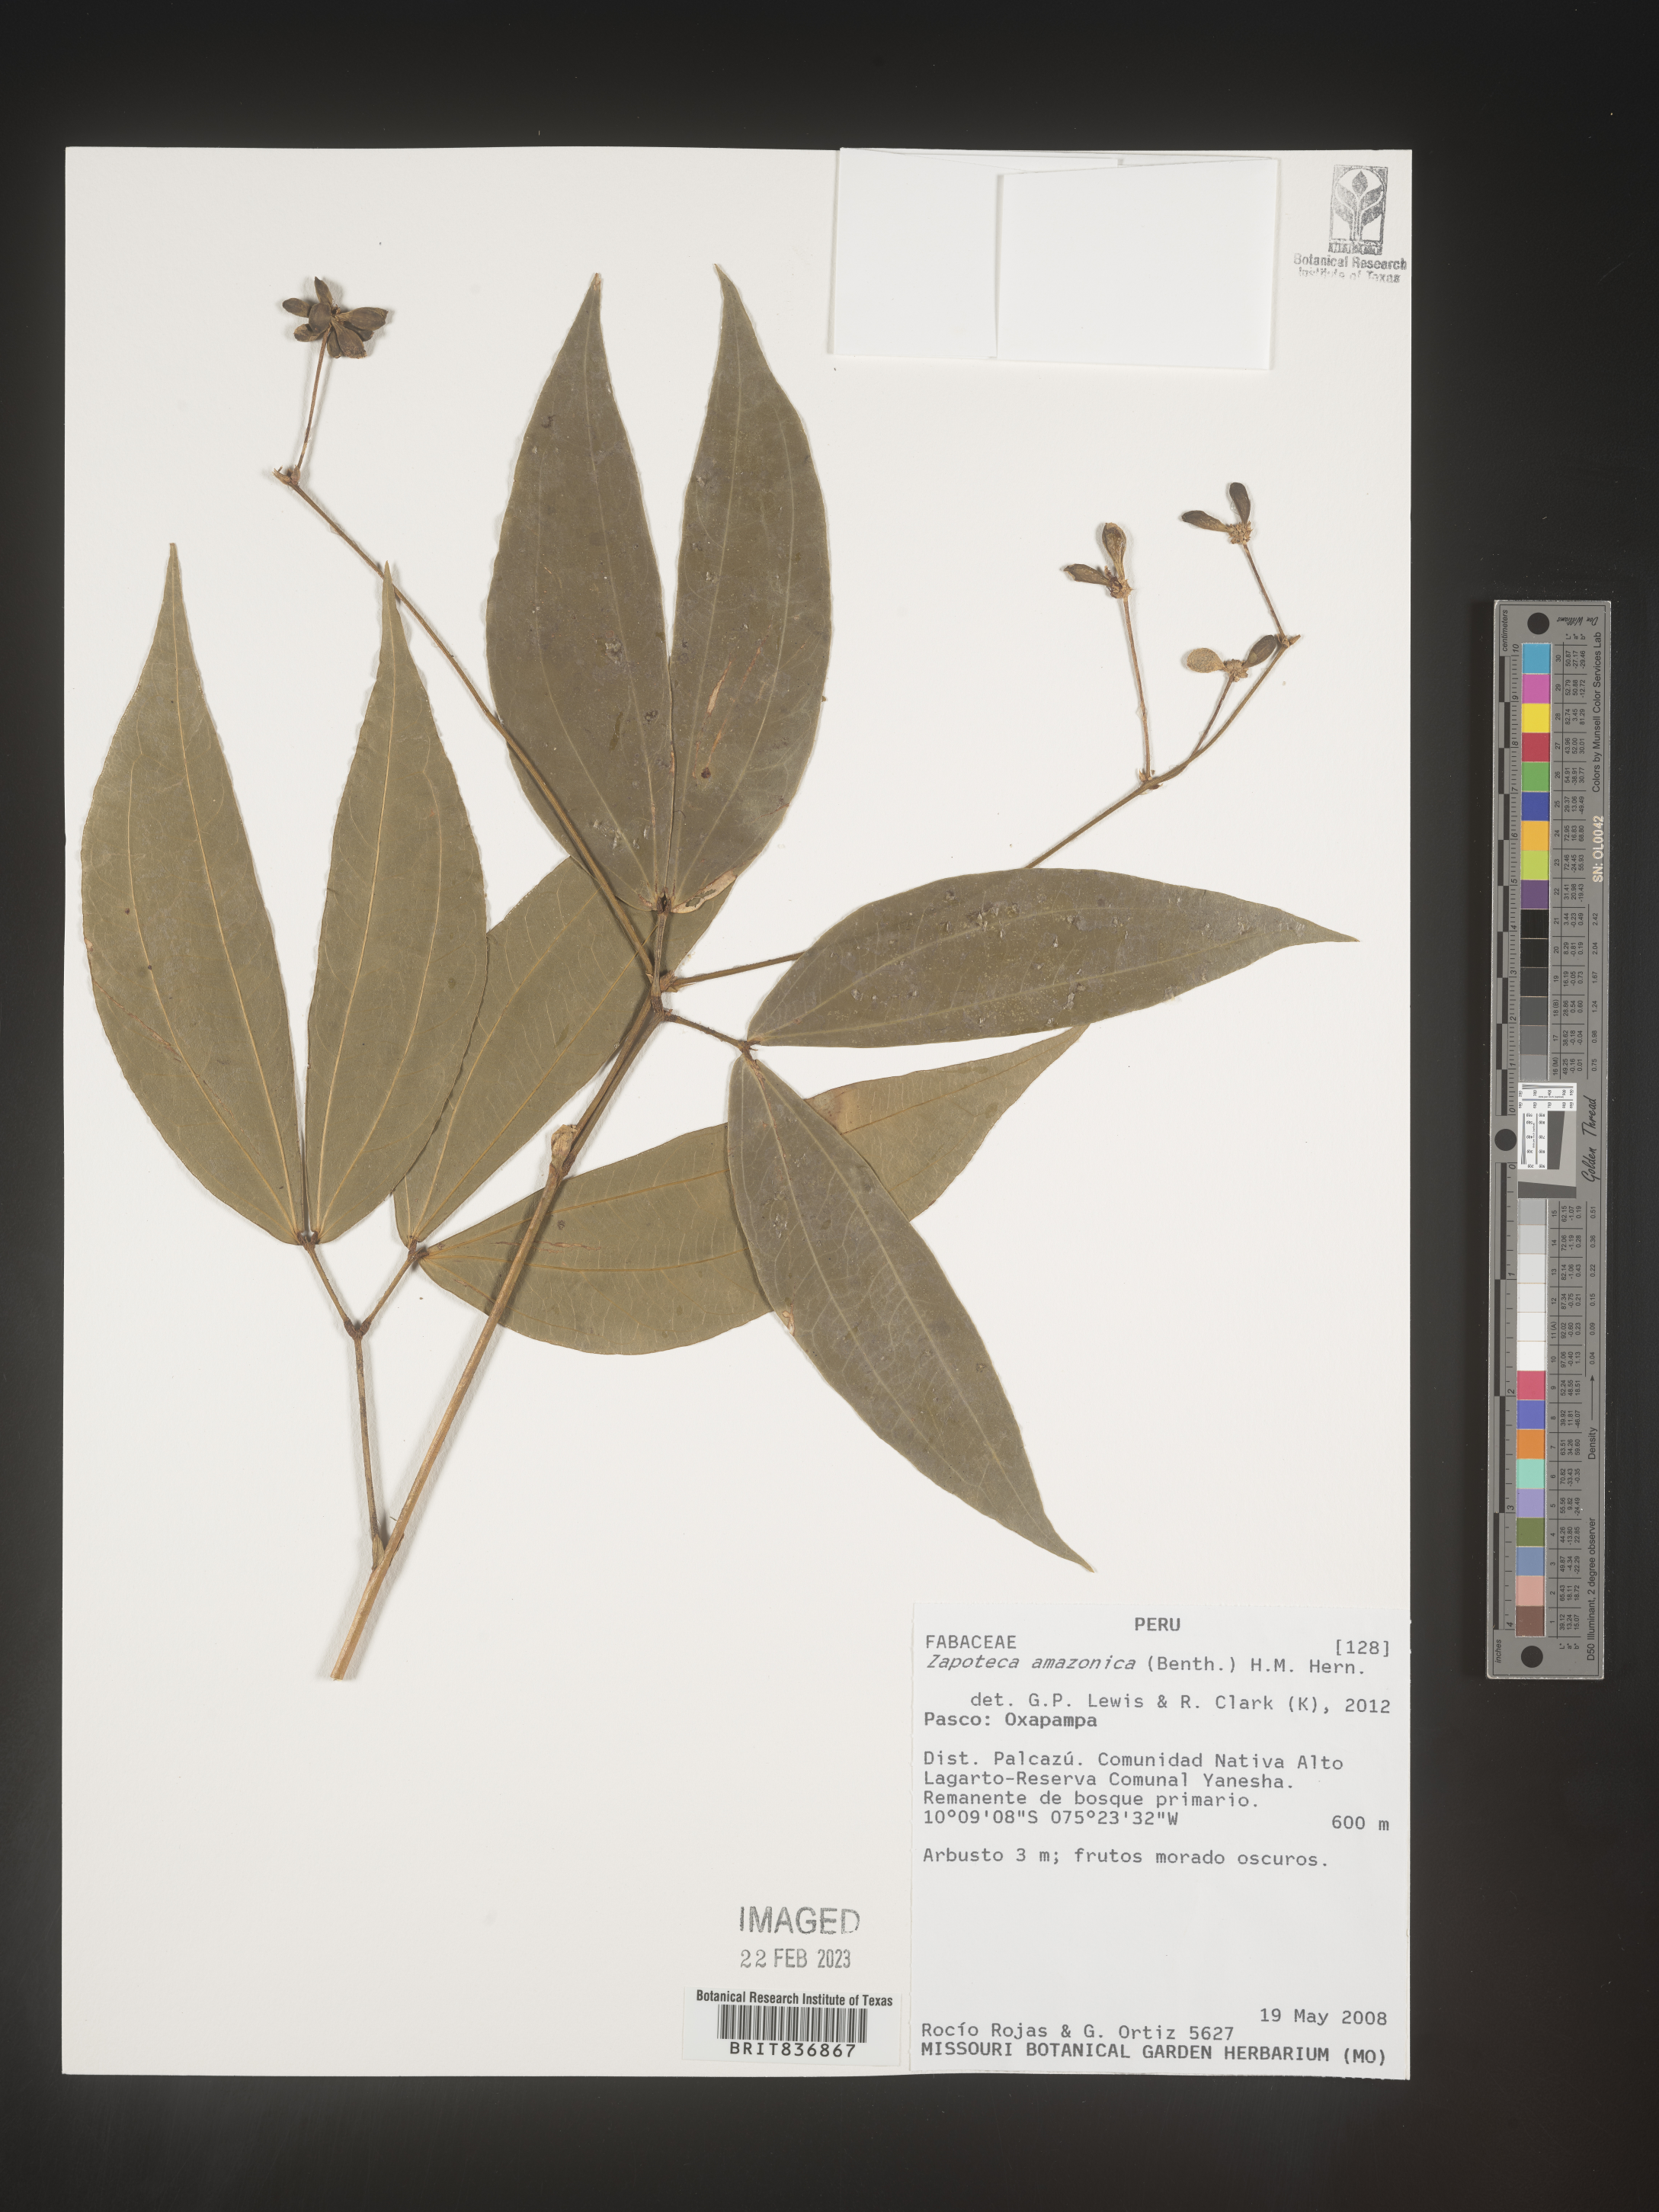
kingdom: Plantae
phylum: Tracheophyta
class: Magnoliopsida
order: Fabales
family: Fabaceae
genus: Zapoteca
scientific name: Zapoteca
